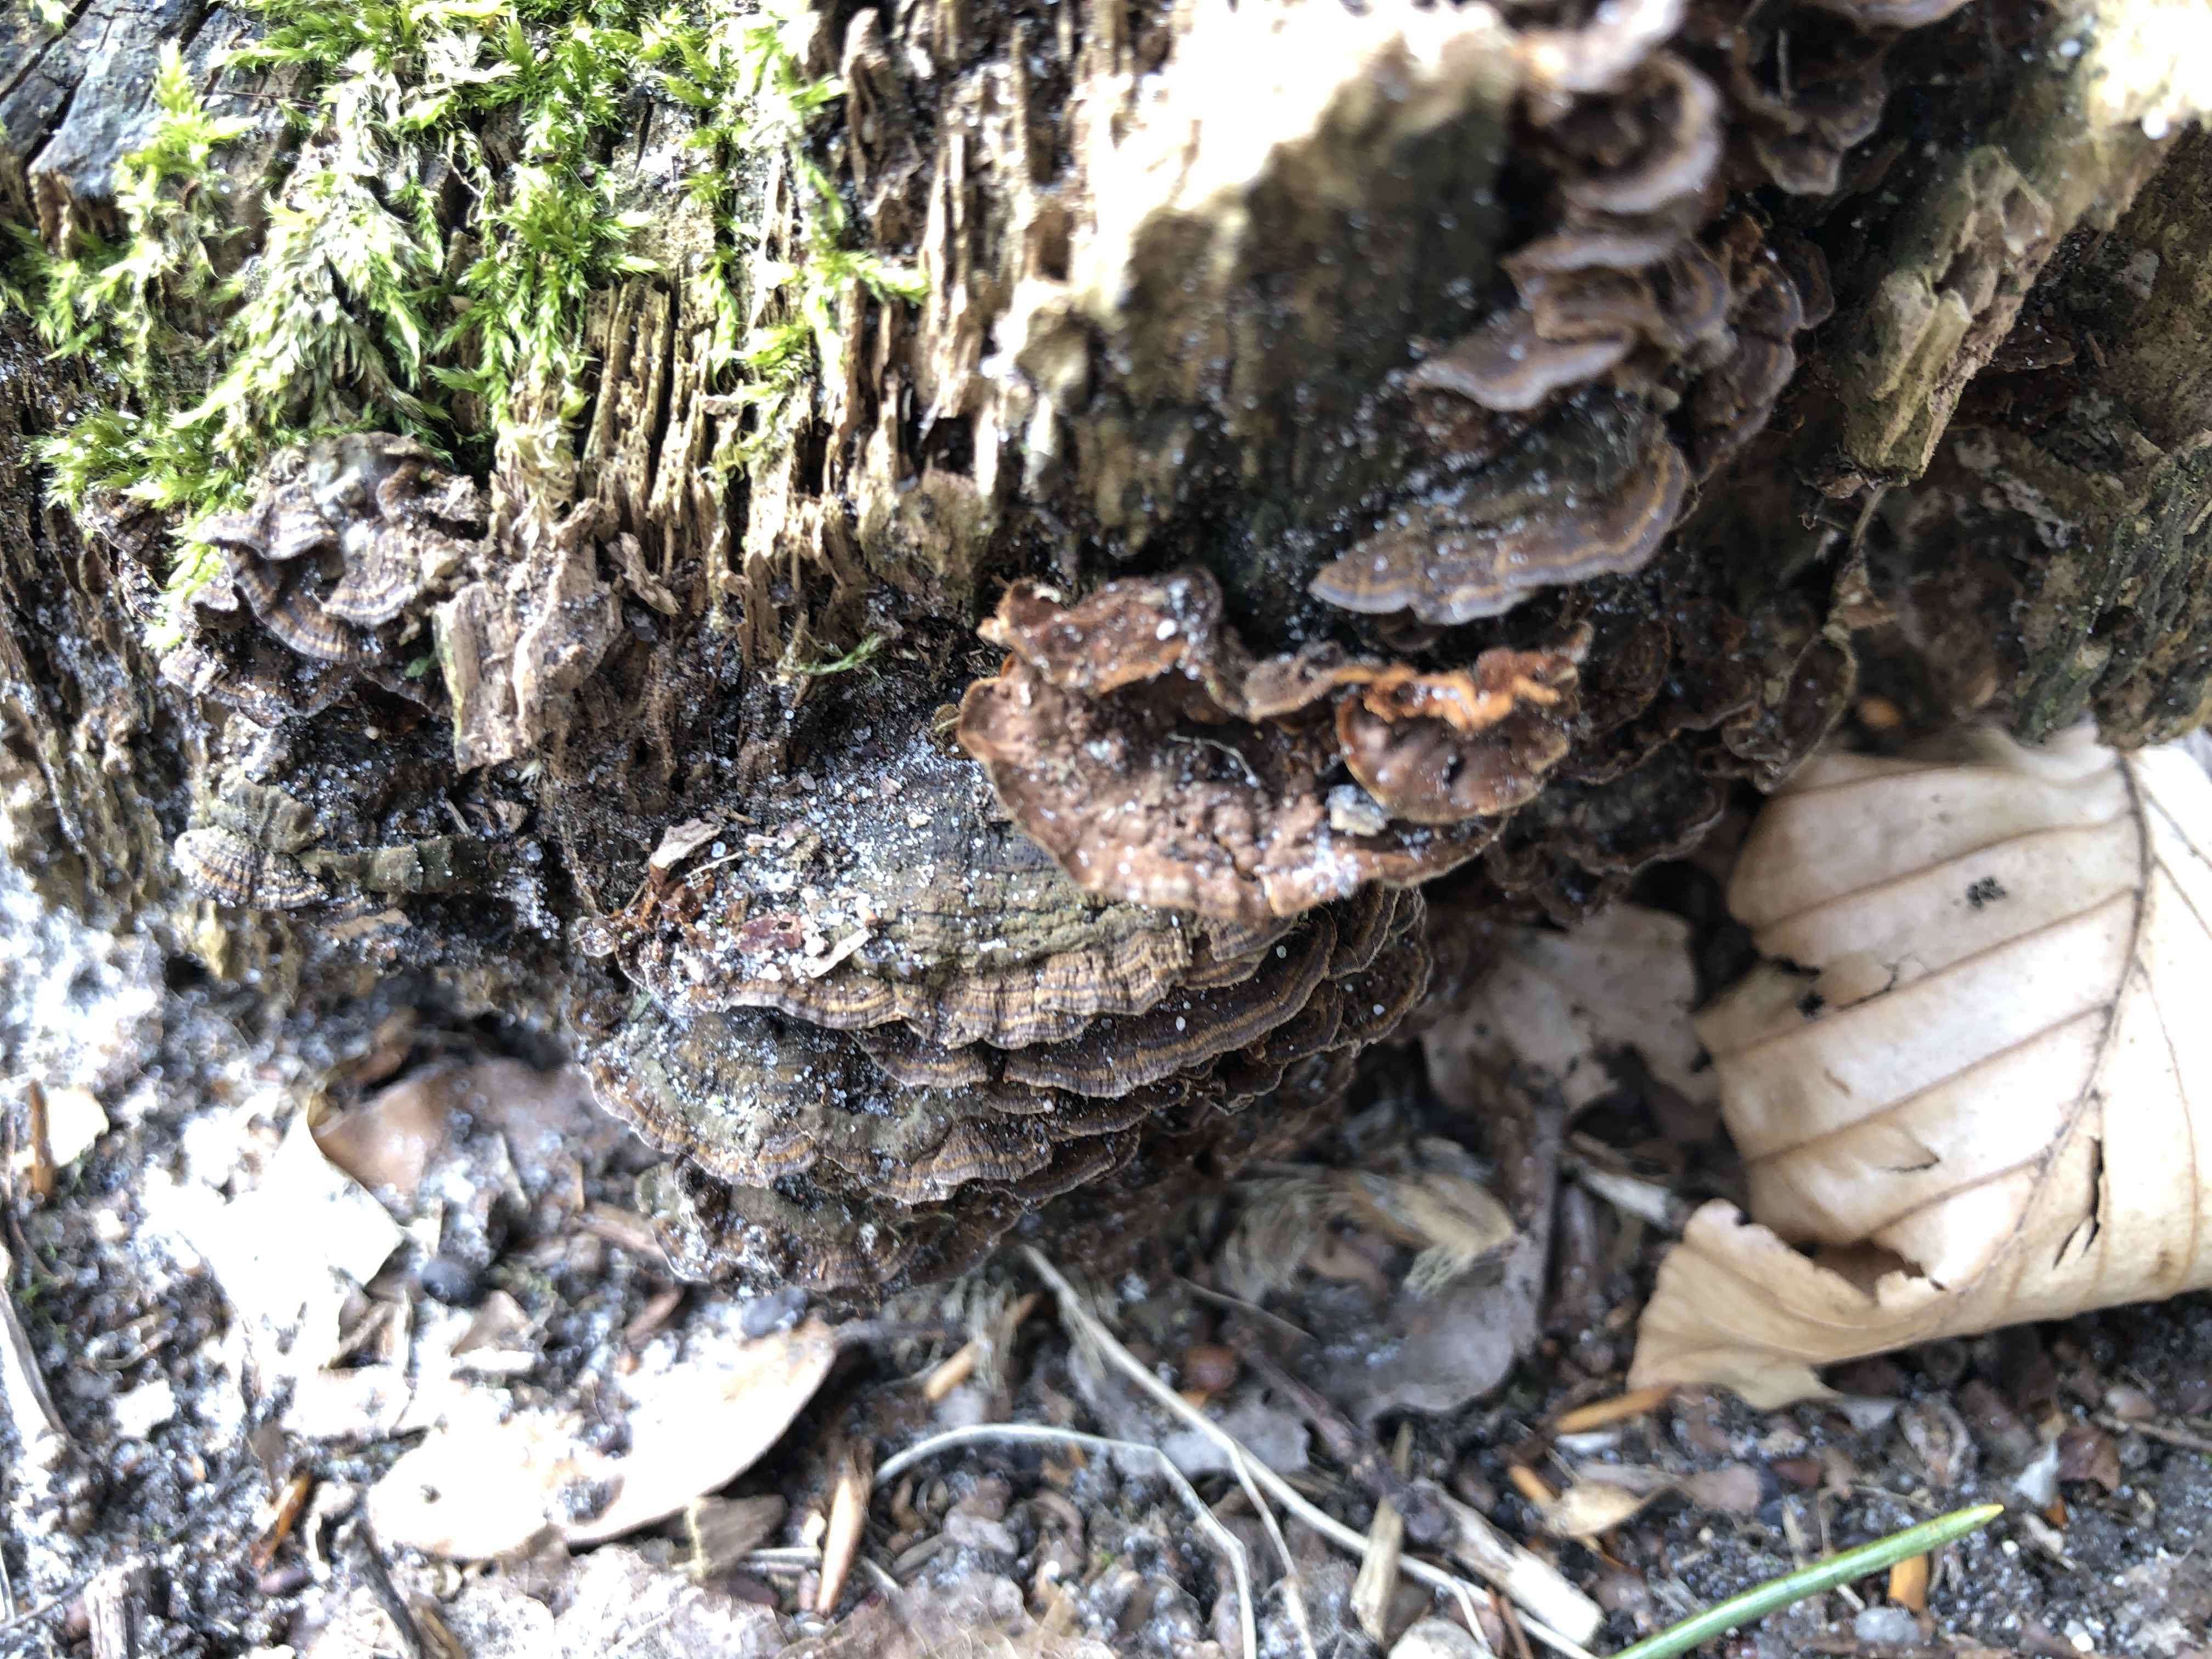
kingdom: Fungi
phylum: Basidiomycota
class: Agaricomycetes
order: Hymenochaetales
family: Hymenochaetaceae
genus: Hymenochaete
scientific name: Hymenochaete rubiginosa
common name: stiv ruslædersvamp
